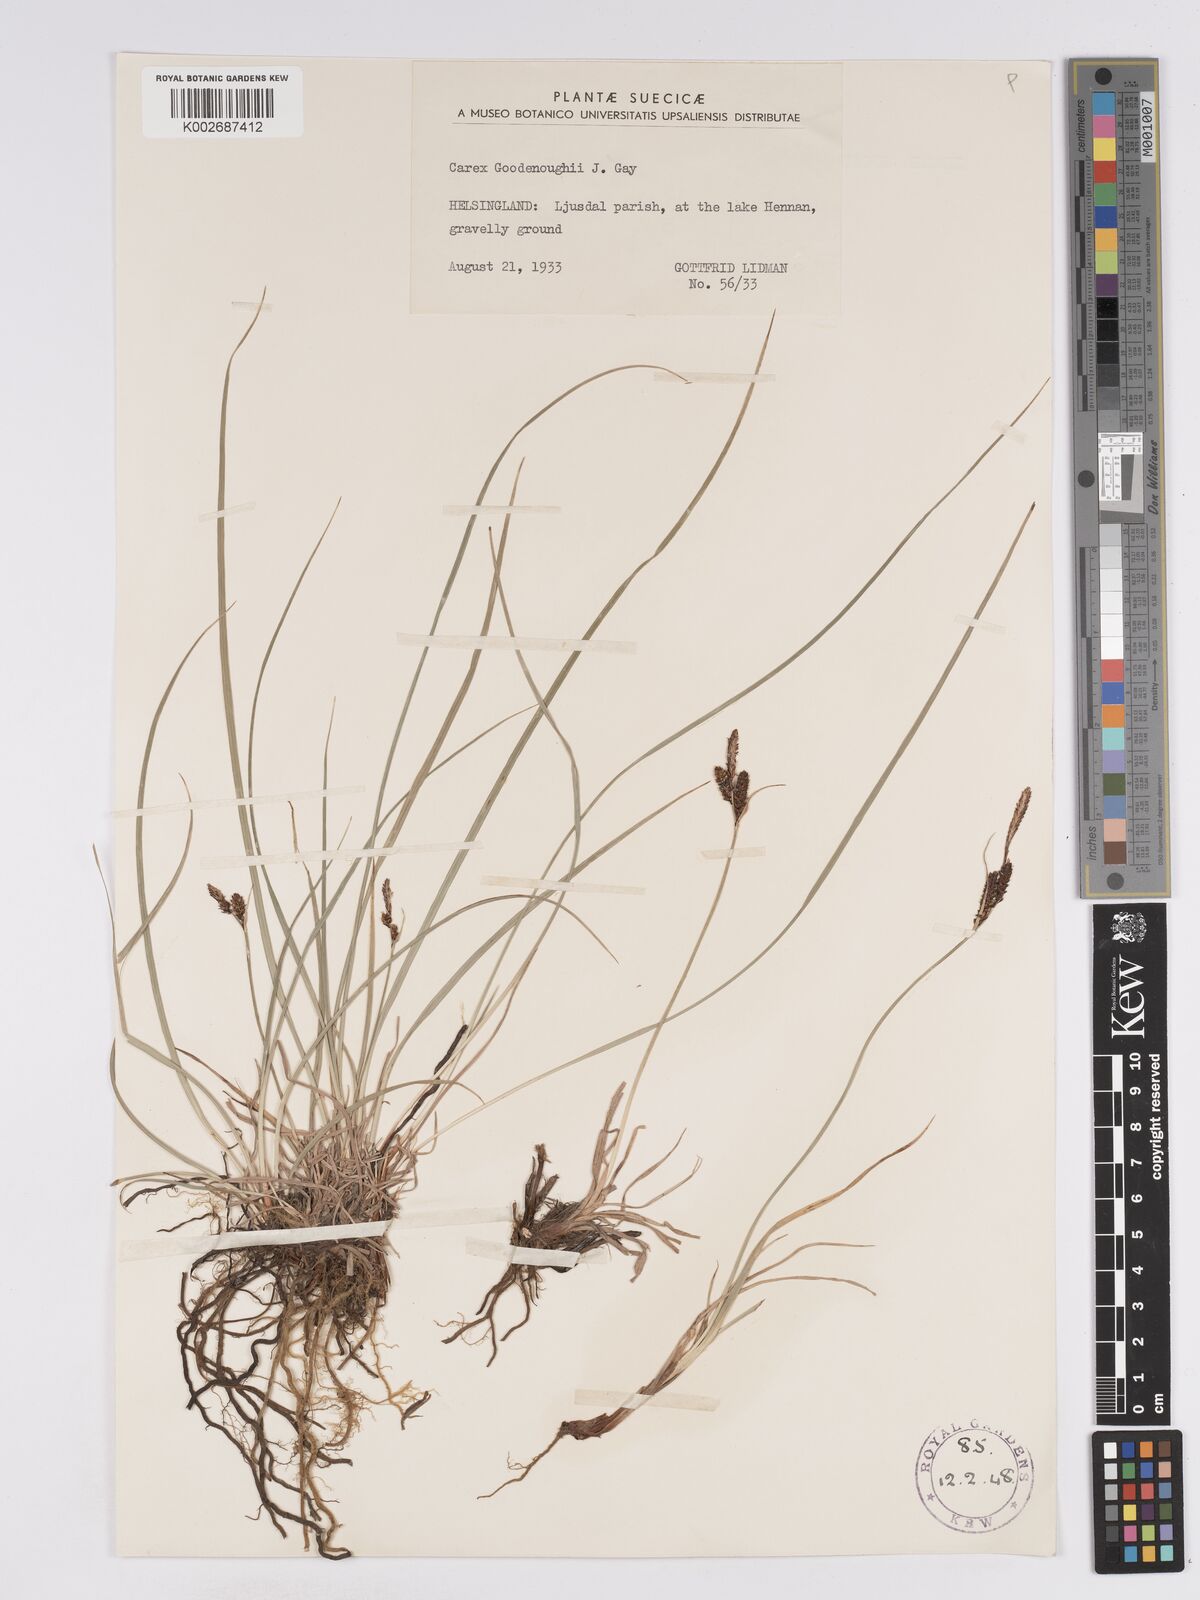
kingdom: Plantae
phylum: Tracheophyta
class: Liliopsida
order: Poales
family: Cyperaceae
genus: Carex
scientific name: Carex nigra
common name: Common sedge
